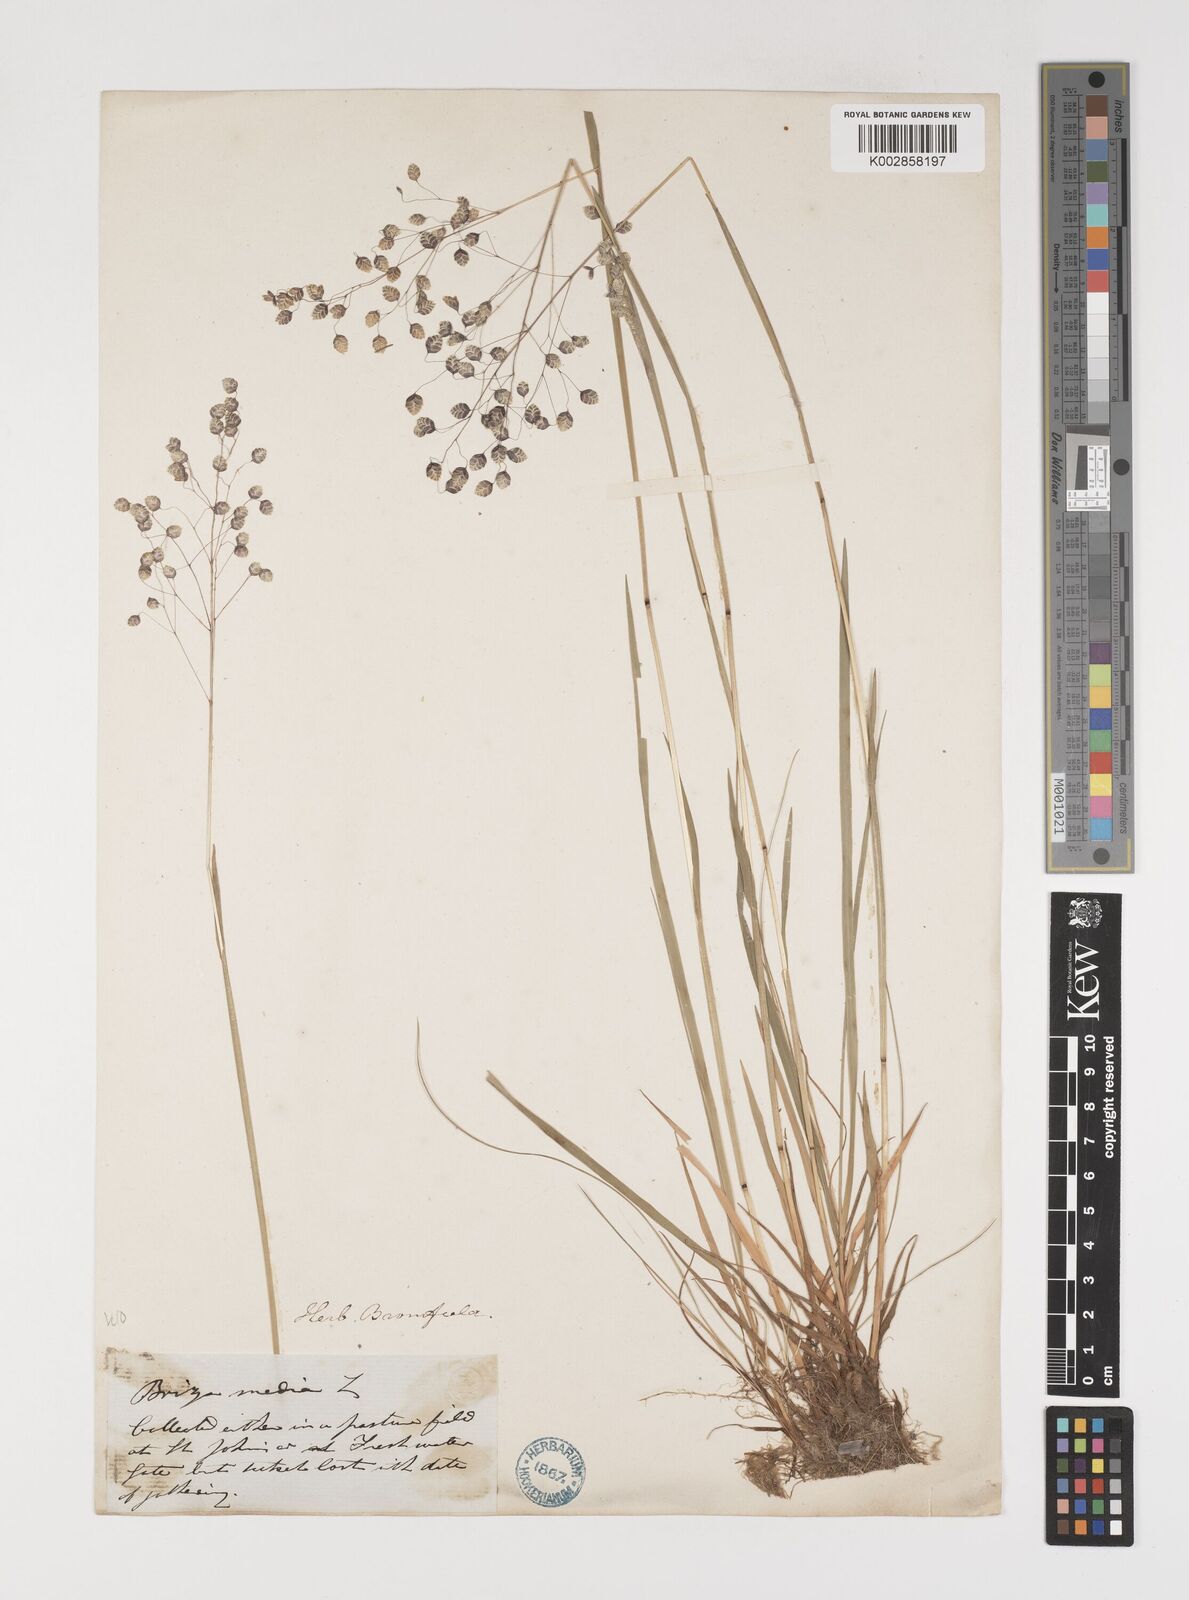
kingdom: Plantae
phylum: Tracheophyta
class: Liliopsida
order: Poales
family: Poaceae
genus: Briza
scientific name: Briza media
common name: Quaking grass
